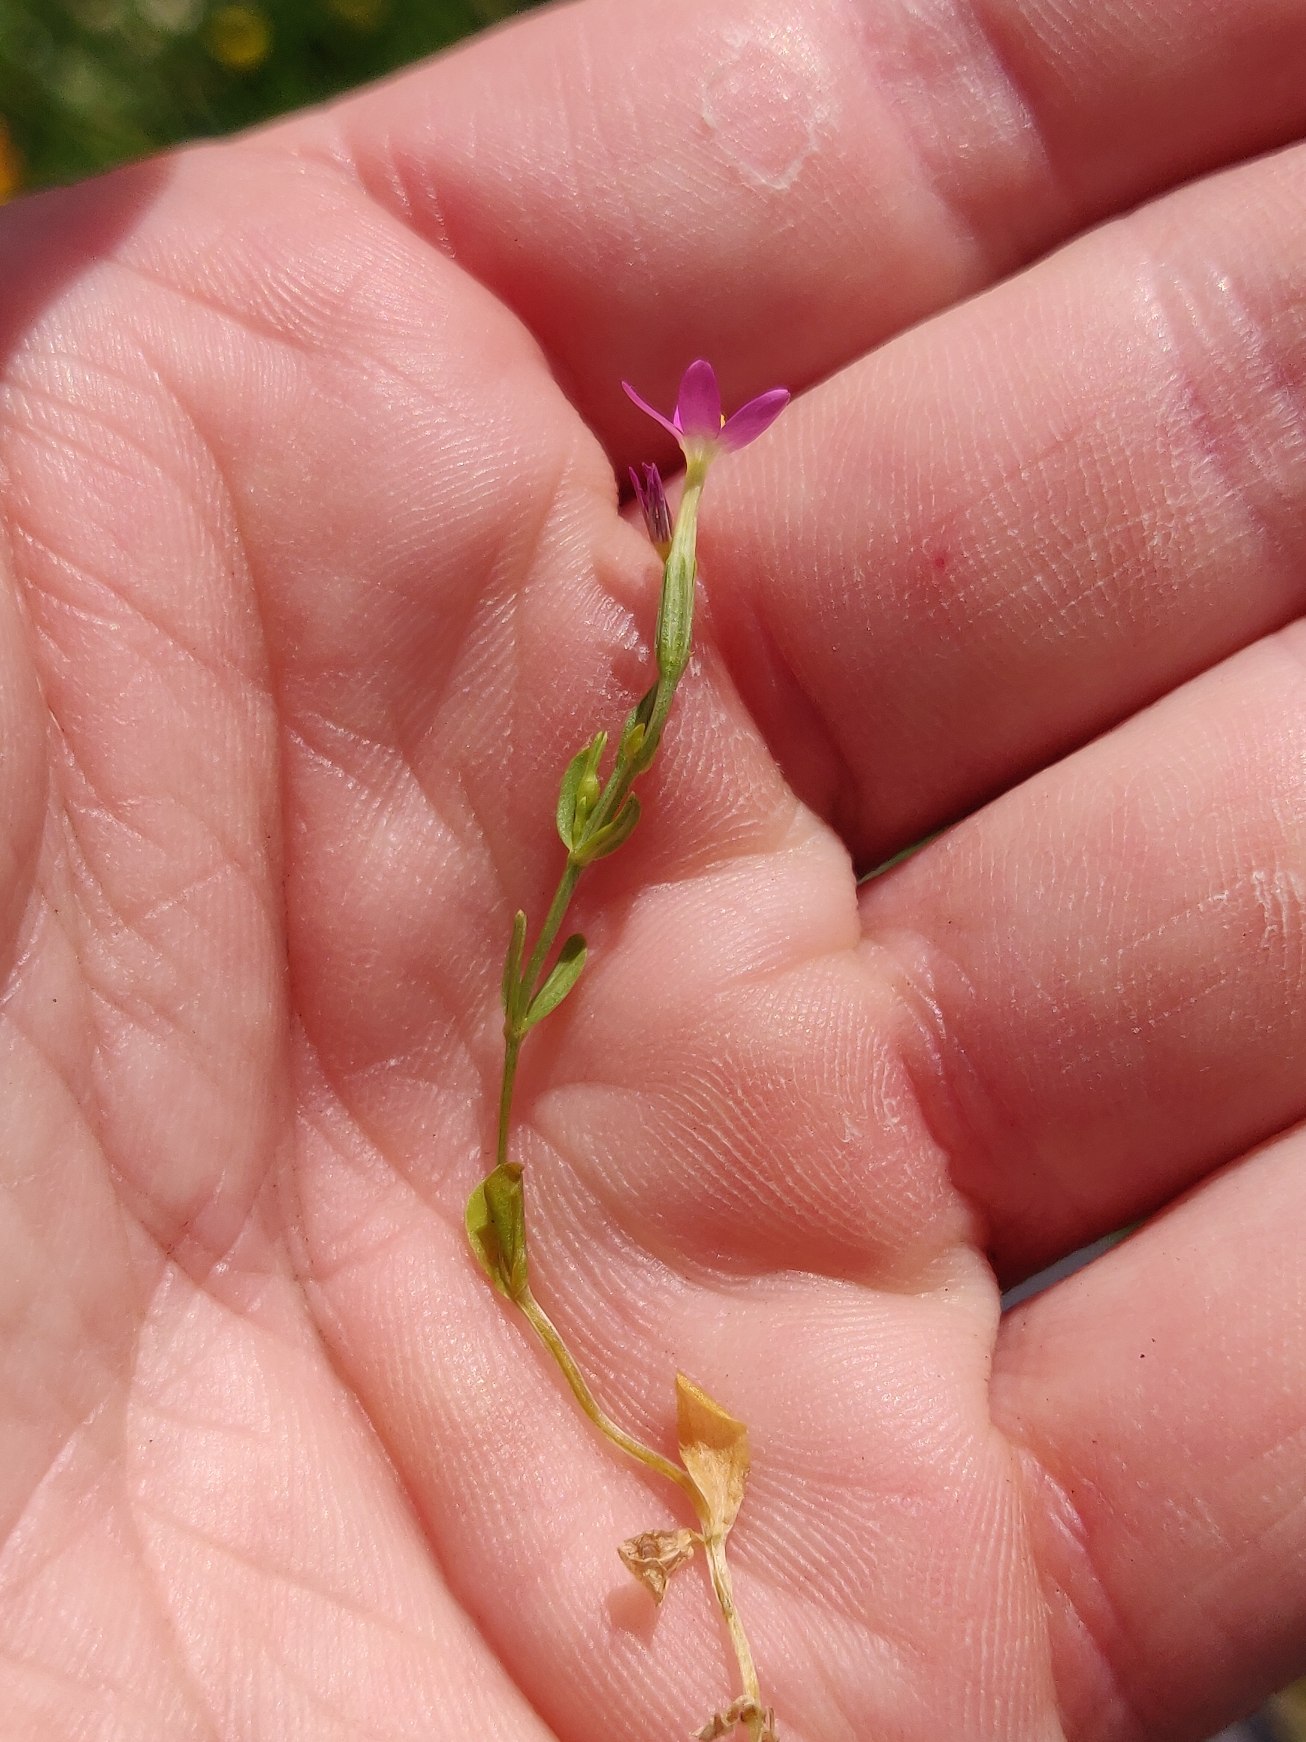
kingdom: Plantae
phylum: Tracheophyta
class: Magnoliopsida
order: Gentianales
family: Gentianaceae
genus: Centaurium
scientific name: Centaurium pulchellum
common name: Liden tusindgylden
